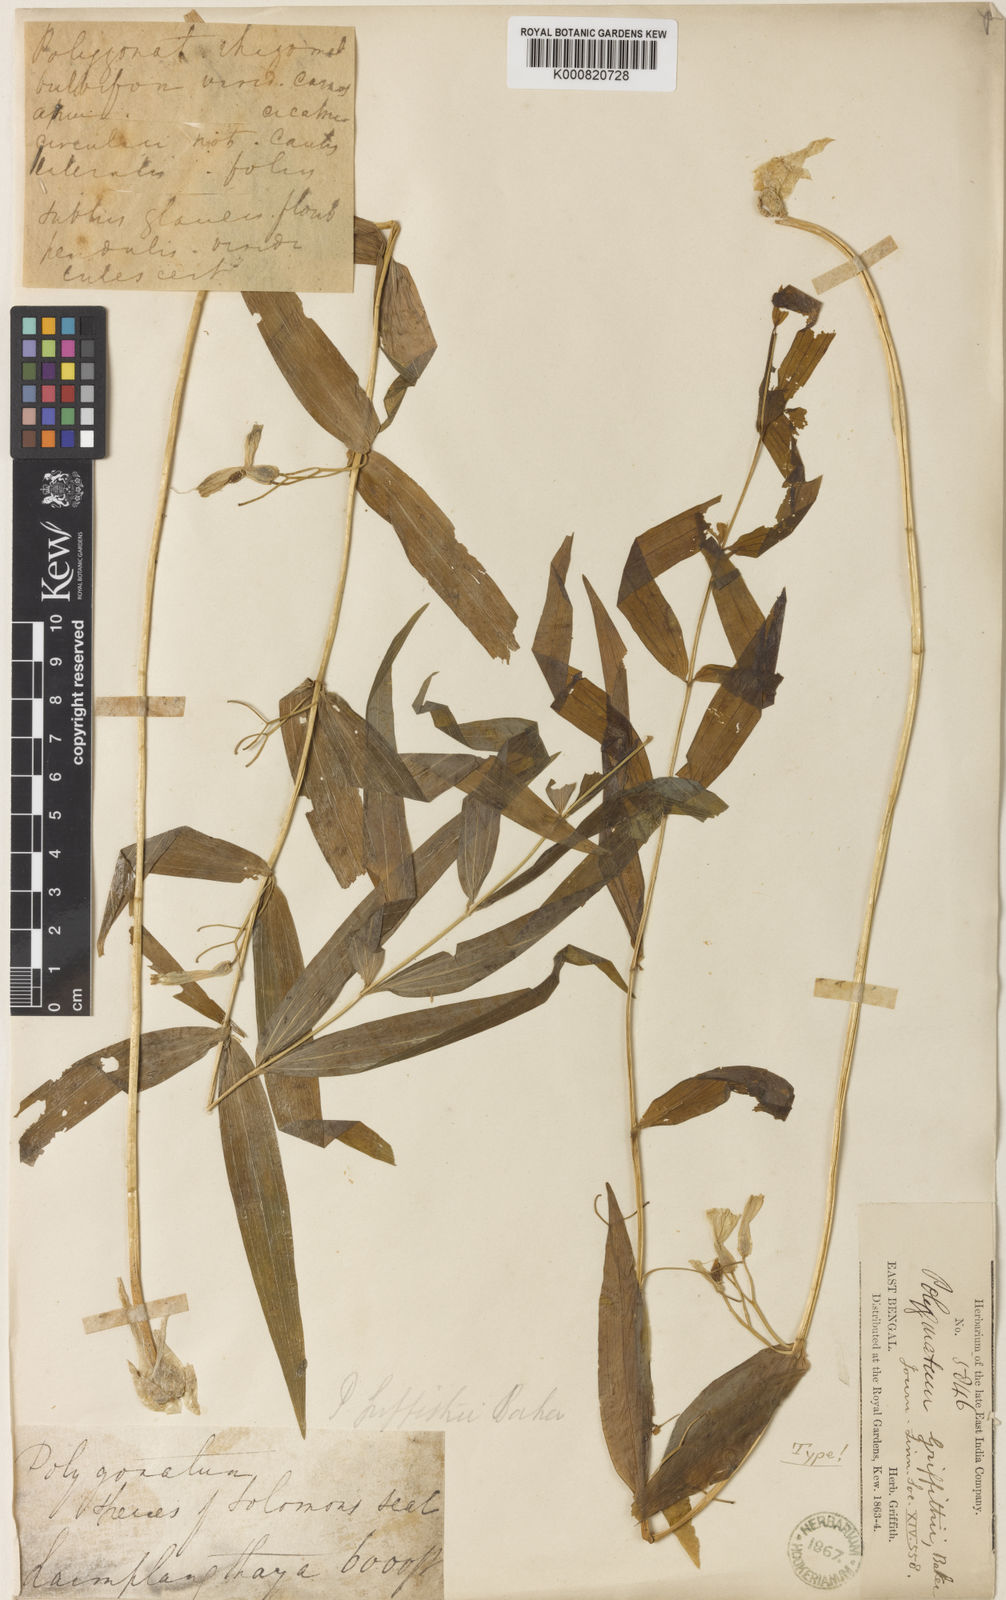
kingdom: Plantae
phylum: Tracheophyta
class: Liliopsida
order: Asparagales
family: Asparagaceae
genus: Polygonatum
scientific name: Polygonatum griffithii
